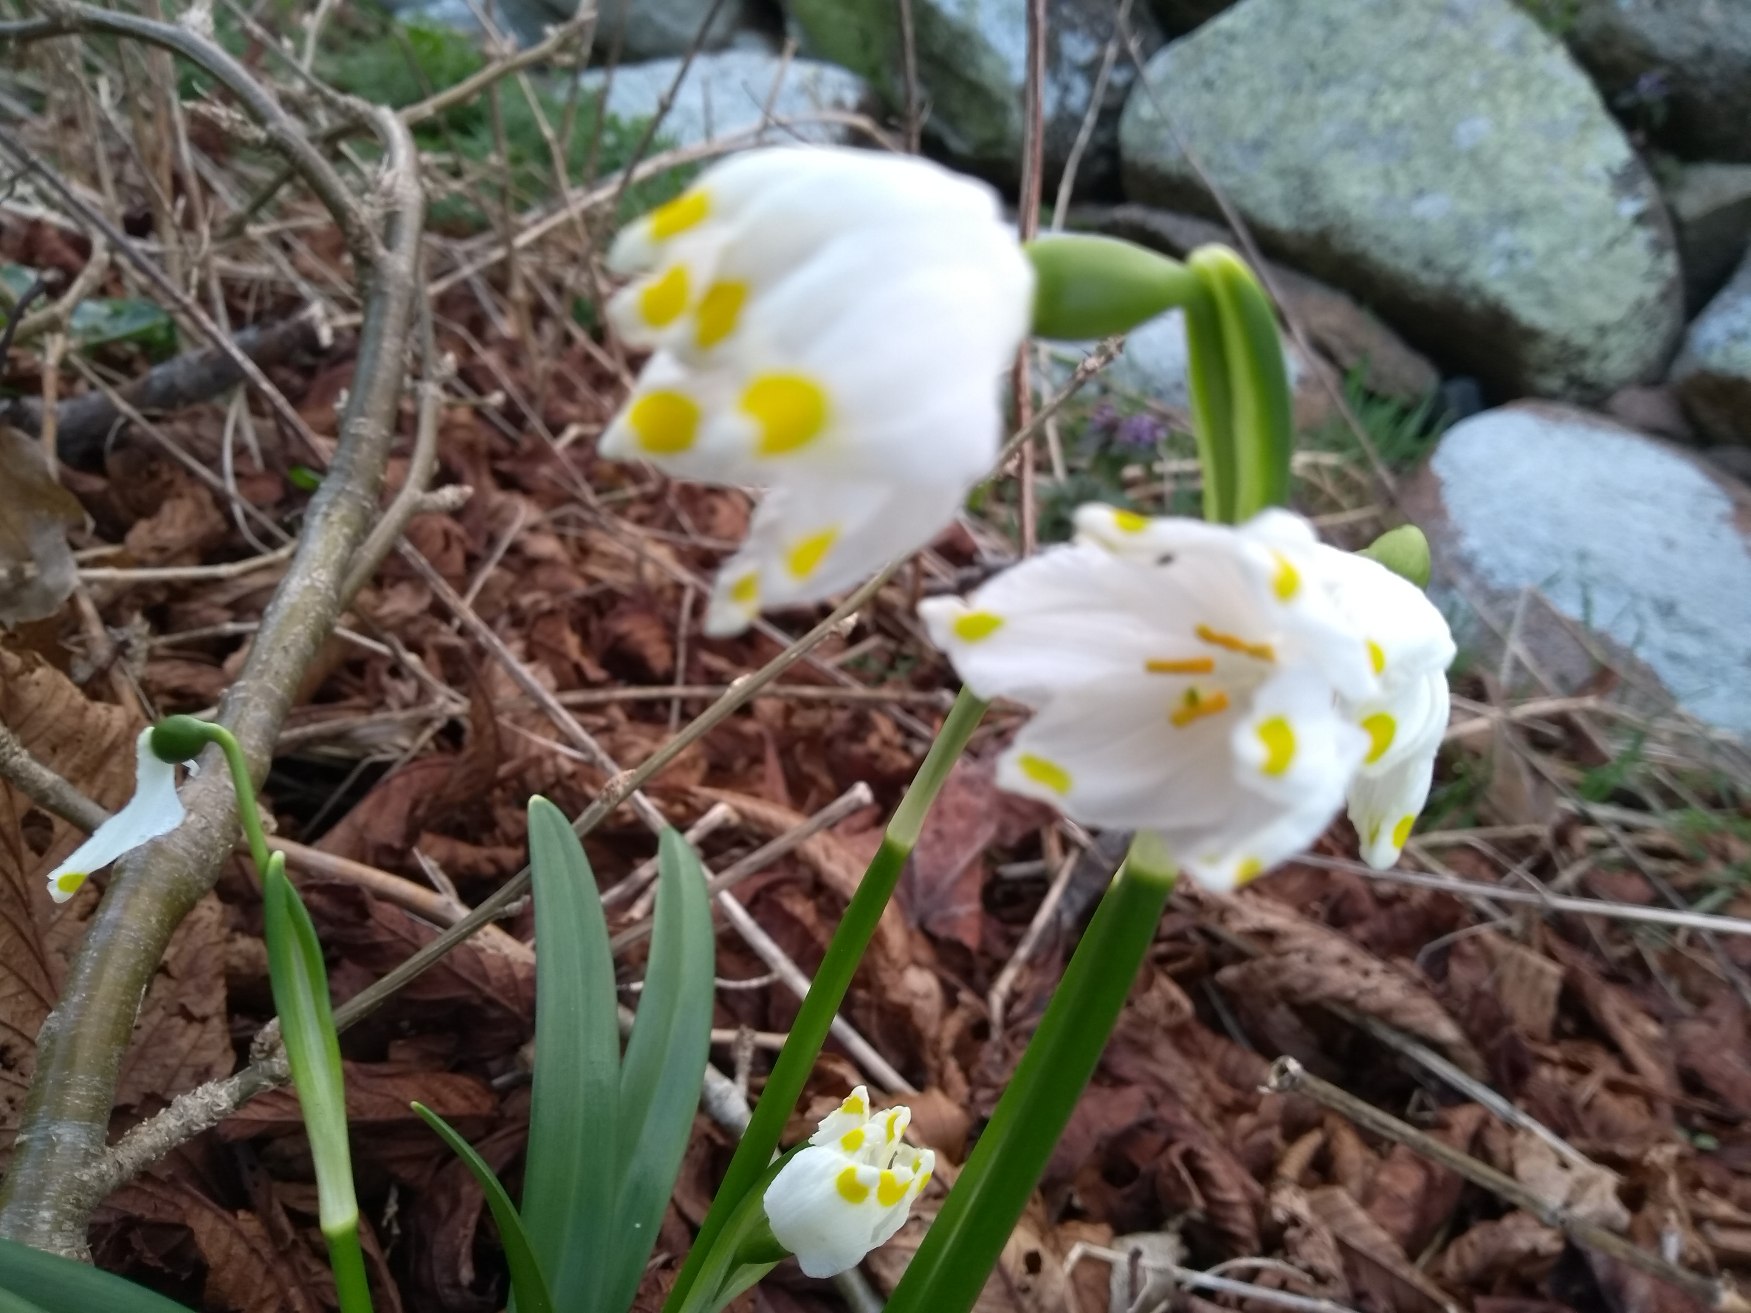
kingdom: Plantae
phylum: Tracheophyta
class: Liliopsida
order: Asparagales
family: Amaryllidaceae
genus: Leucojum
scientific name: Leucojum vernum
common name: Dorthealilje
